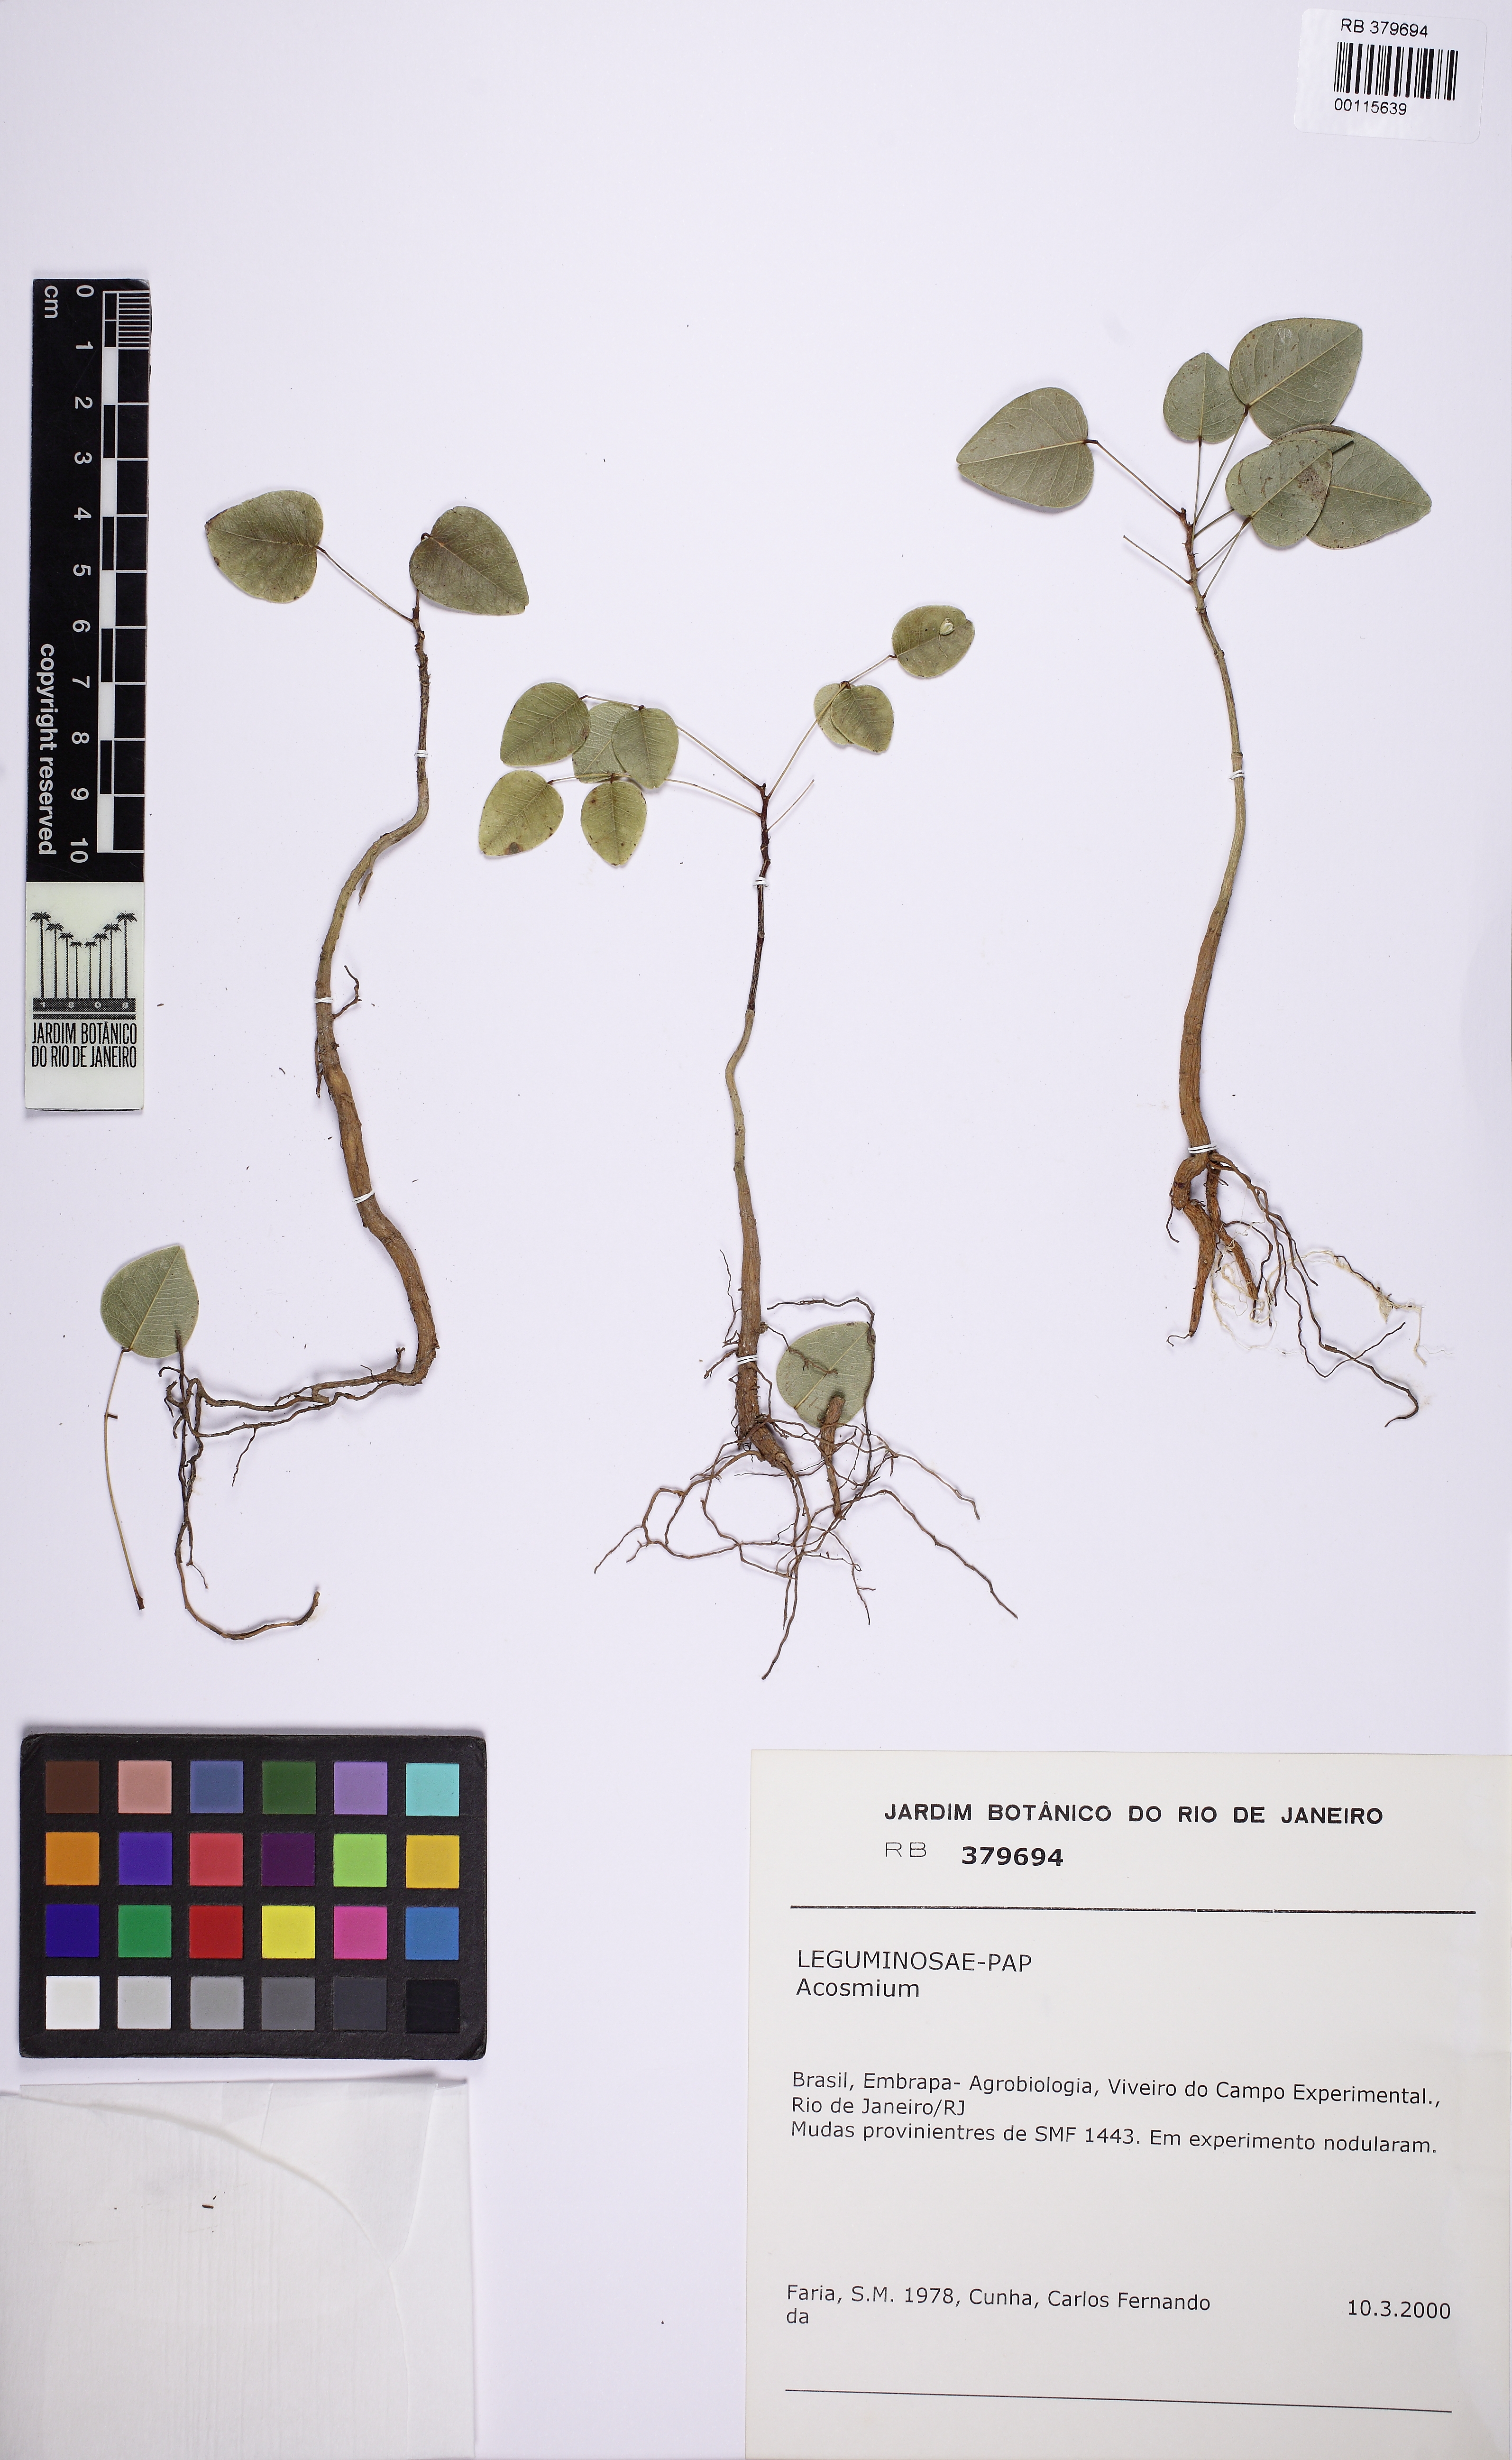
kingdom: Plantae
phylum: Tracheophyta
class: Magnoliopsida
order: Fabales
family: Fabaceae
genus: Leptolobium
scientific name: Leptolobium elegans
